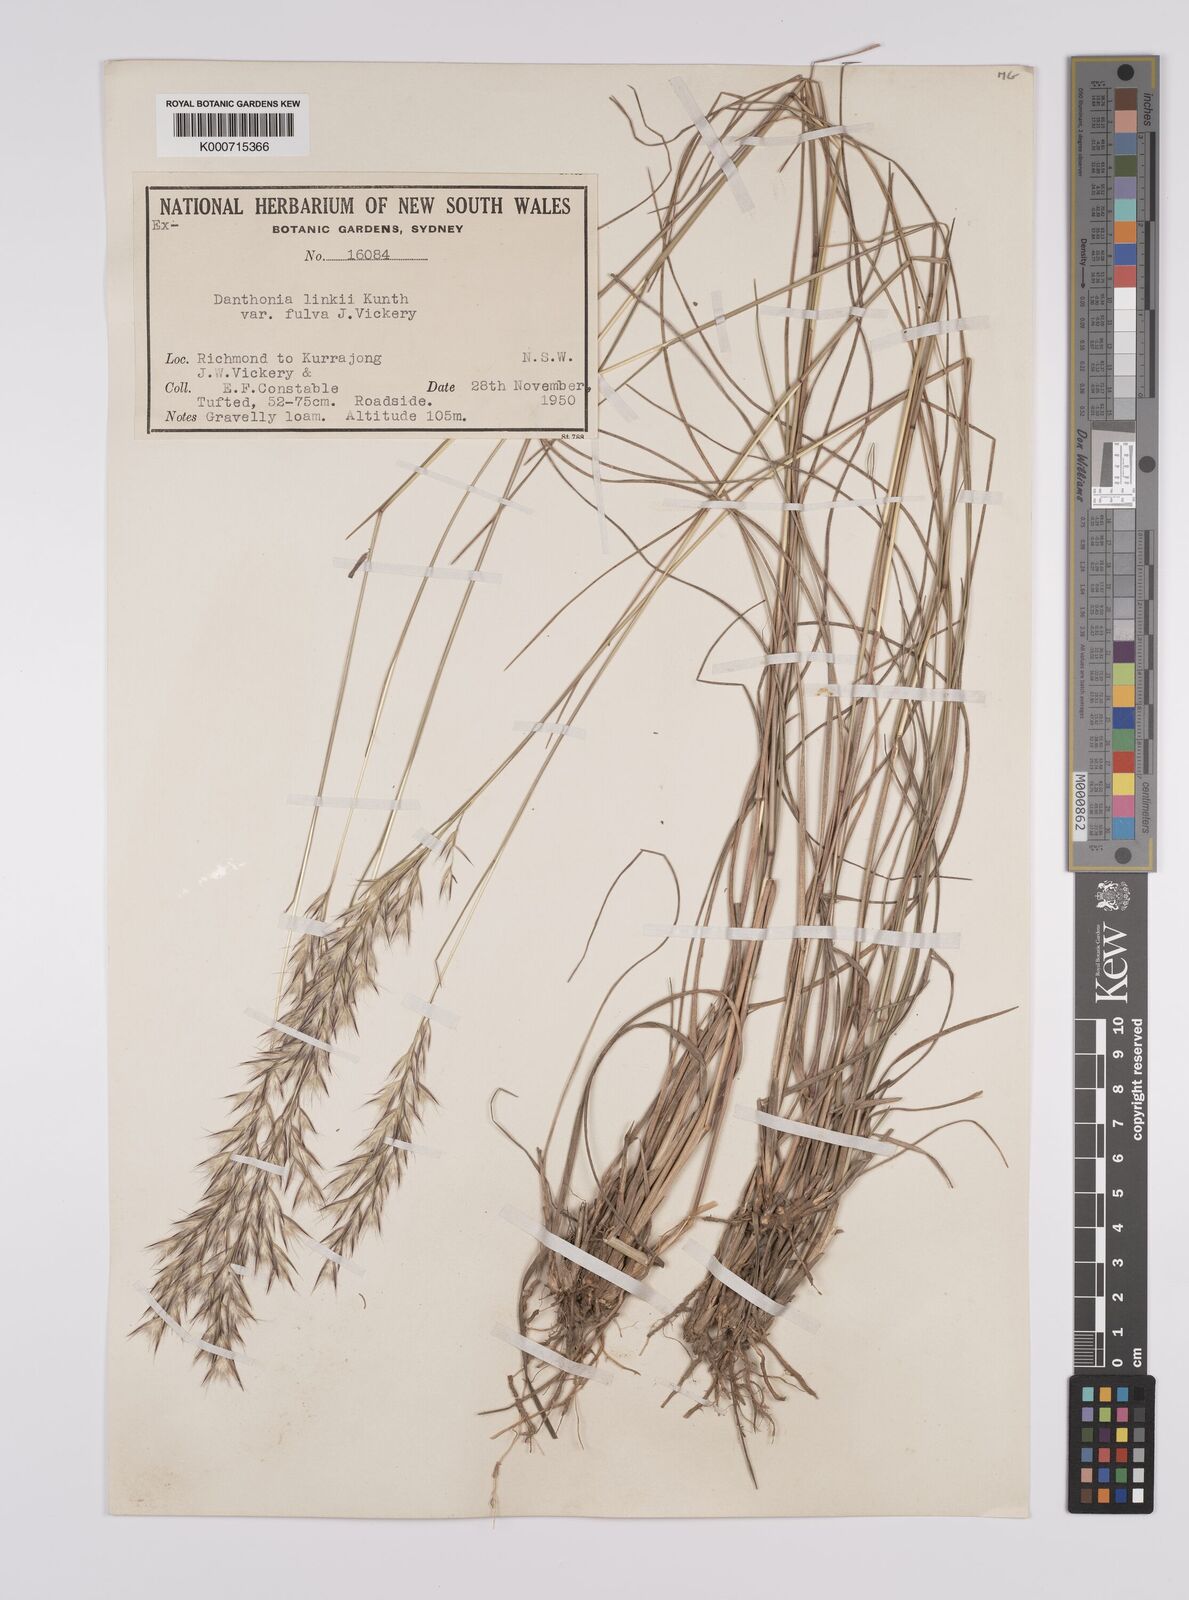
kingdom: Plantae
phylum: Tracheophyta
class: Liliopsida
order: Poales
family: Poaceae
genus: Rytidosperma
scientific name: Rytidosperma bipartitum
